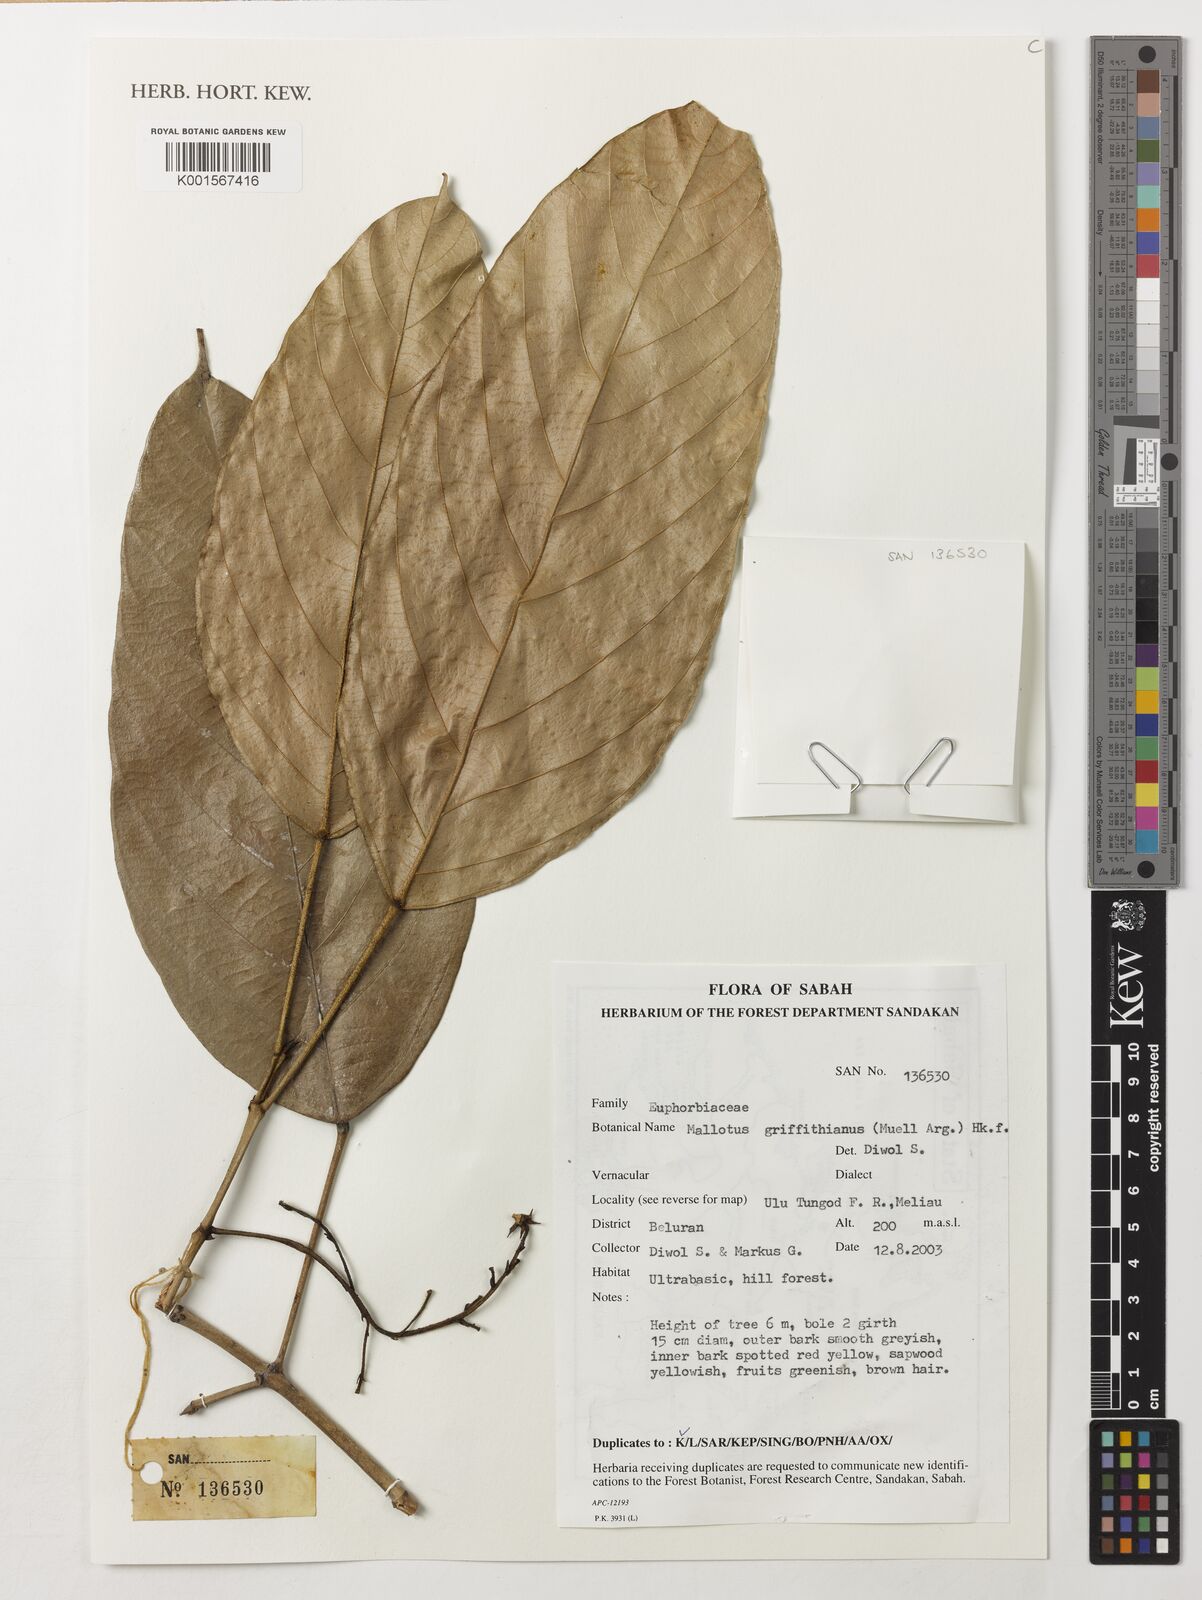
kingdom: Plantae
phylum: Tracheophyta
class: Magnoliopsida
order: Malpighiales
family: Euphorbiaceae
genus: Hancea
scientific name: Hancea griffithiana
